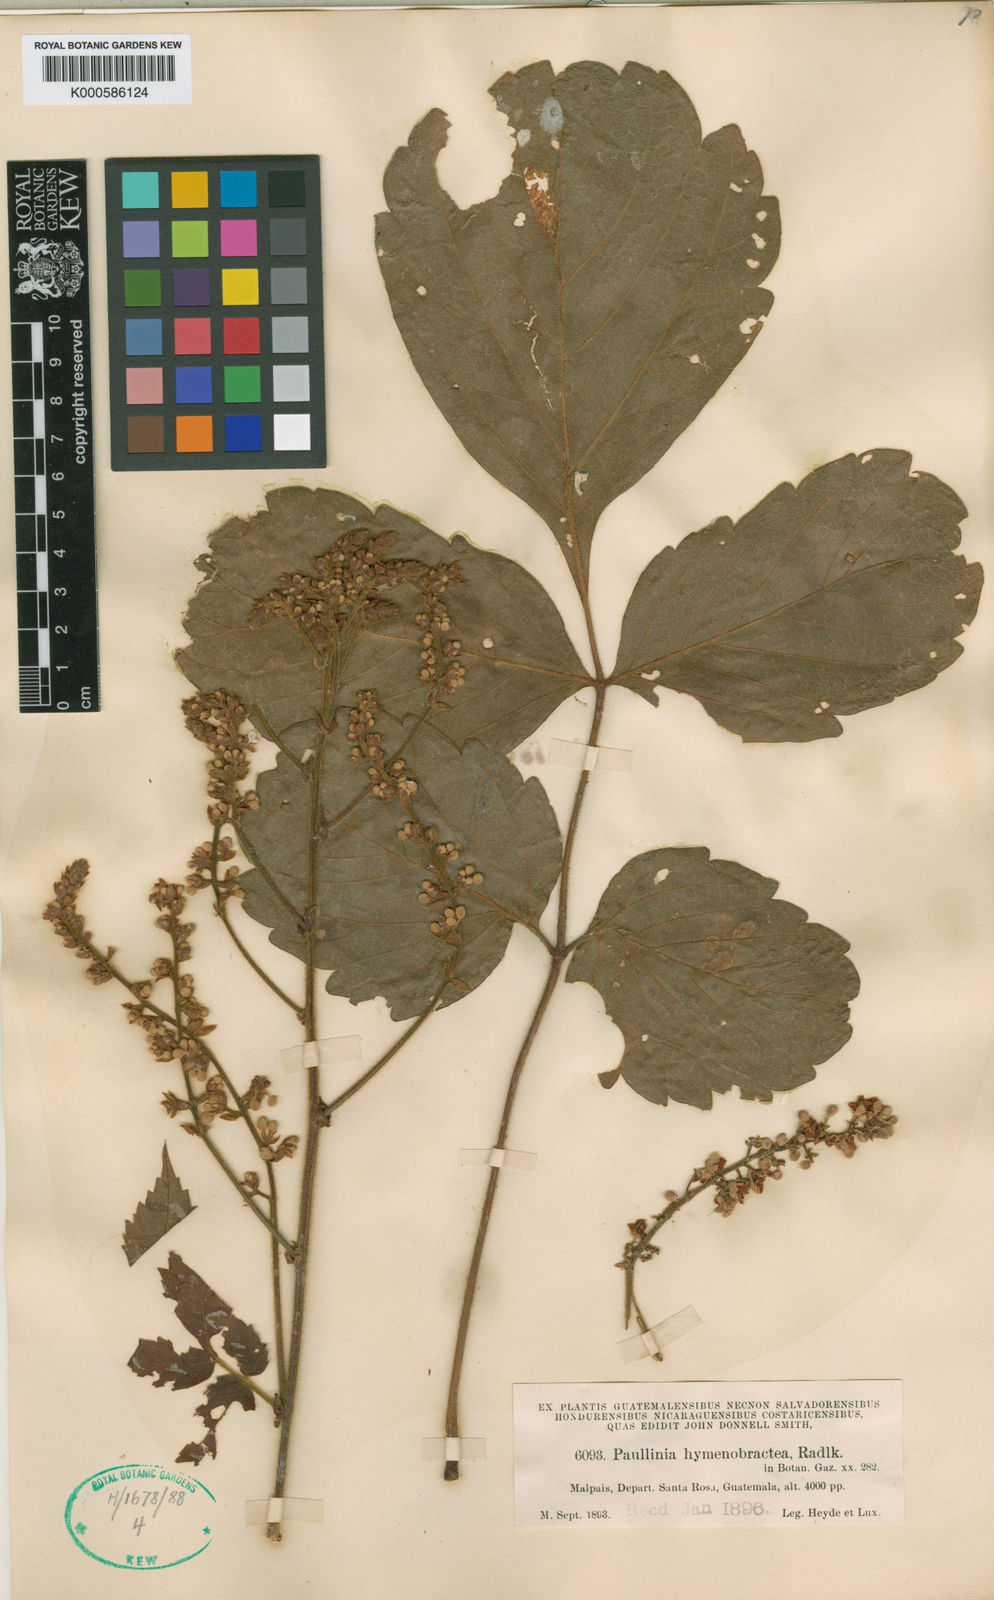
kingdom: Plantae
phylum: Tracheophyta
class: Magnoliopsida
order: Sapindales
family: Sapindaceae
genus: Paullinia
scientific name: Paullinia
